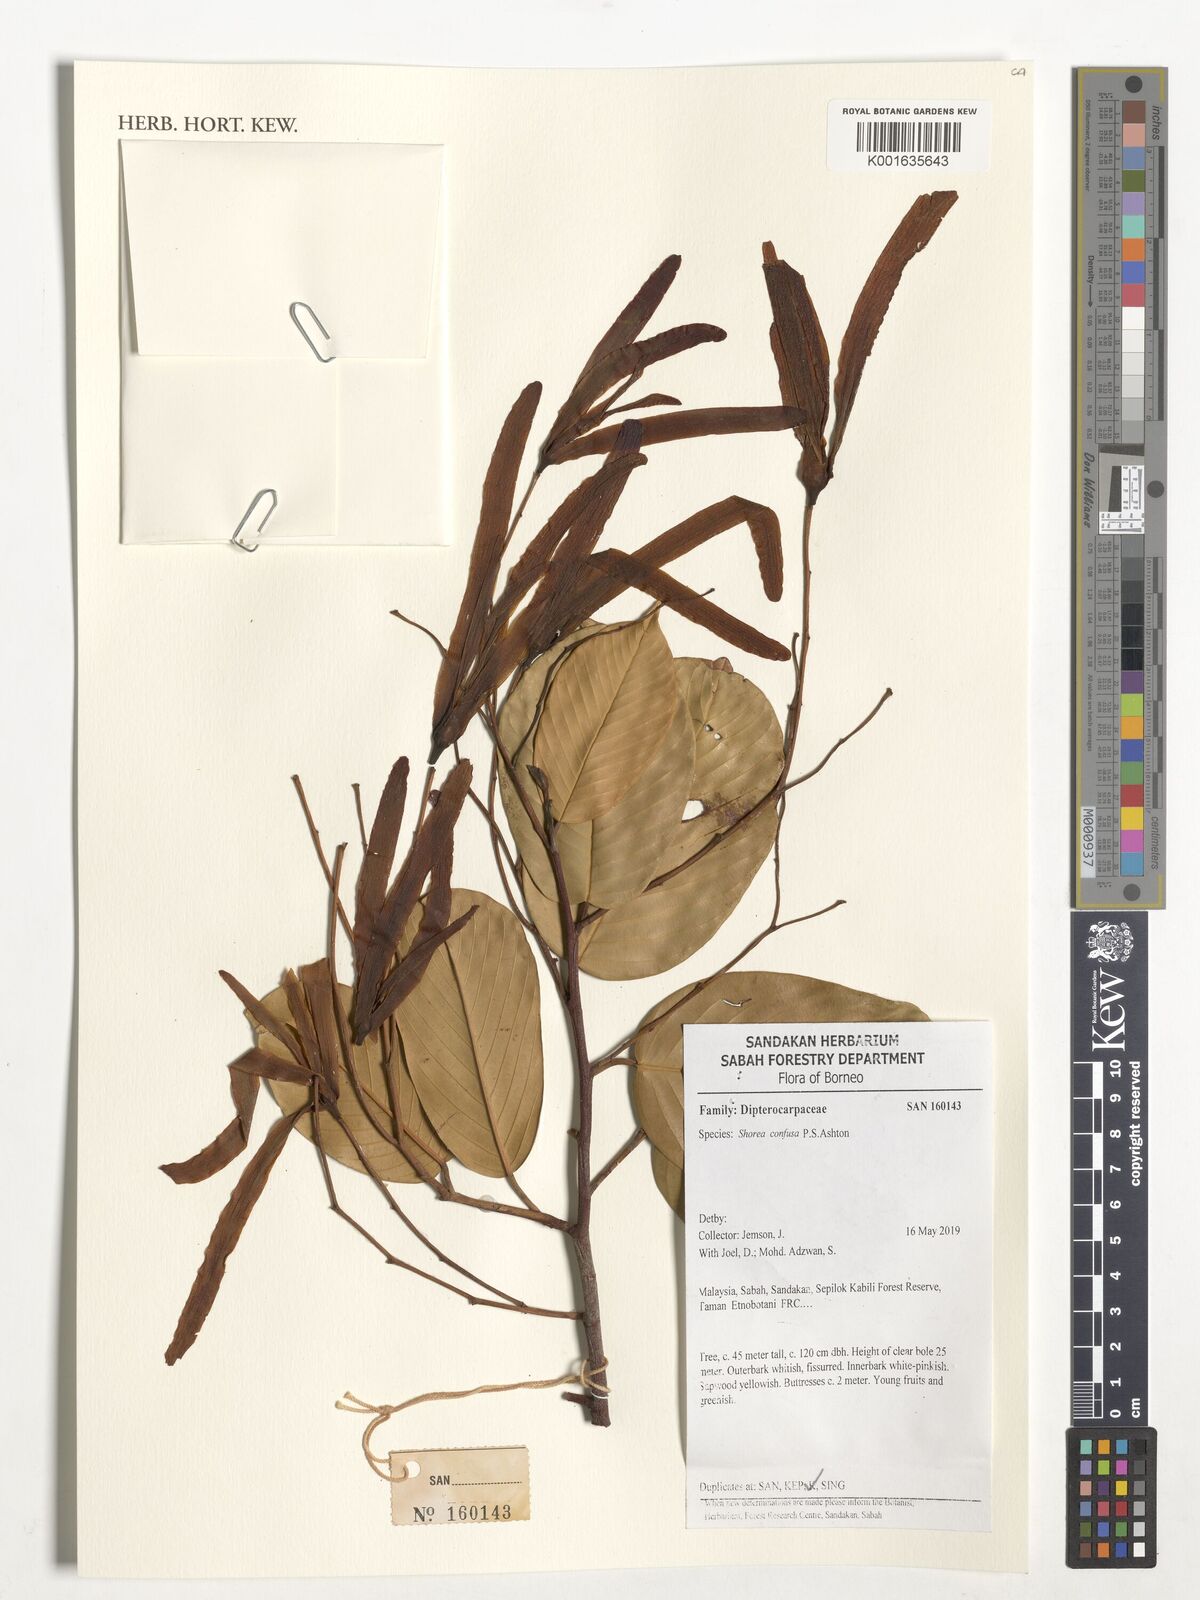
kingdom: Plantae
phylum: Tracheophyta
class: Magnoliopsida
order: Malvales
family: Dipterocarpaceae
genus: Anthoshorea
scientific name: Anthoshorea confusa
